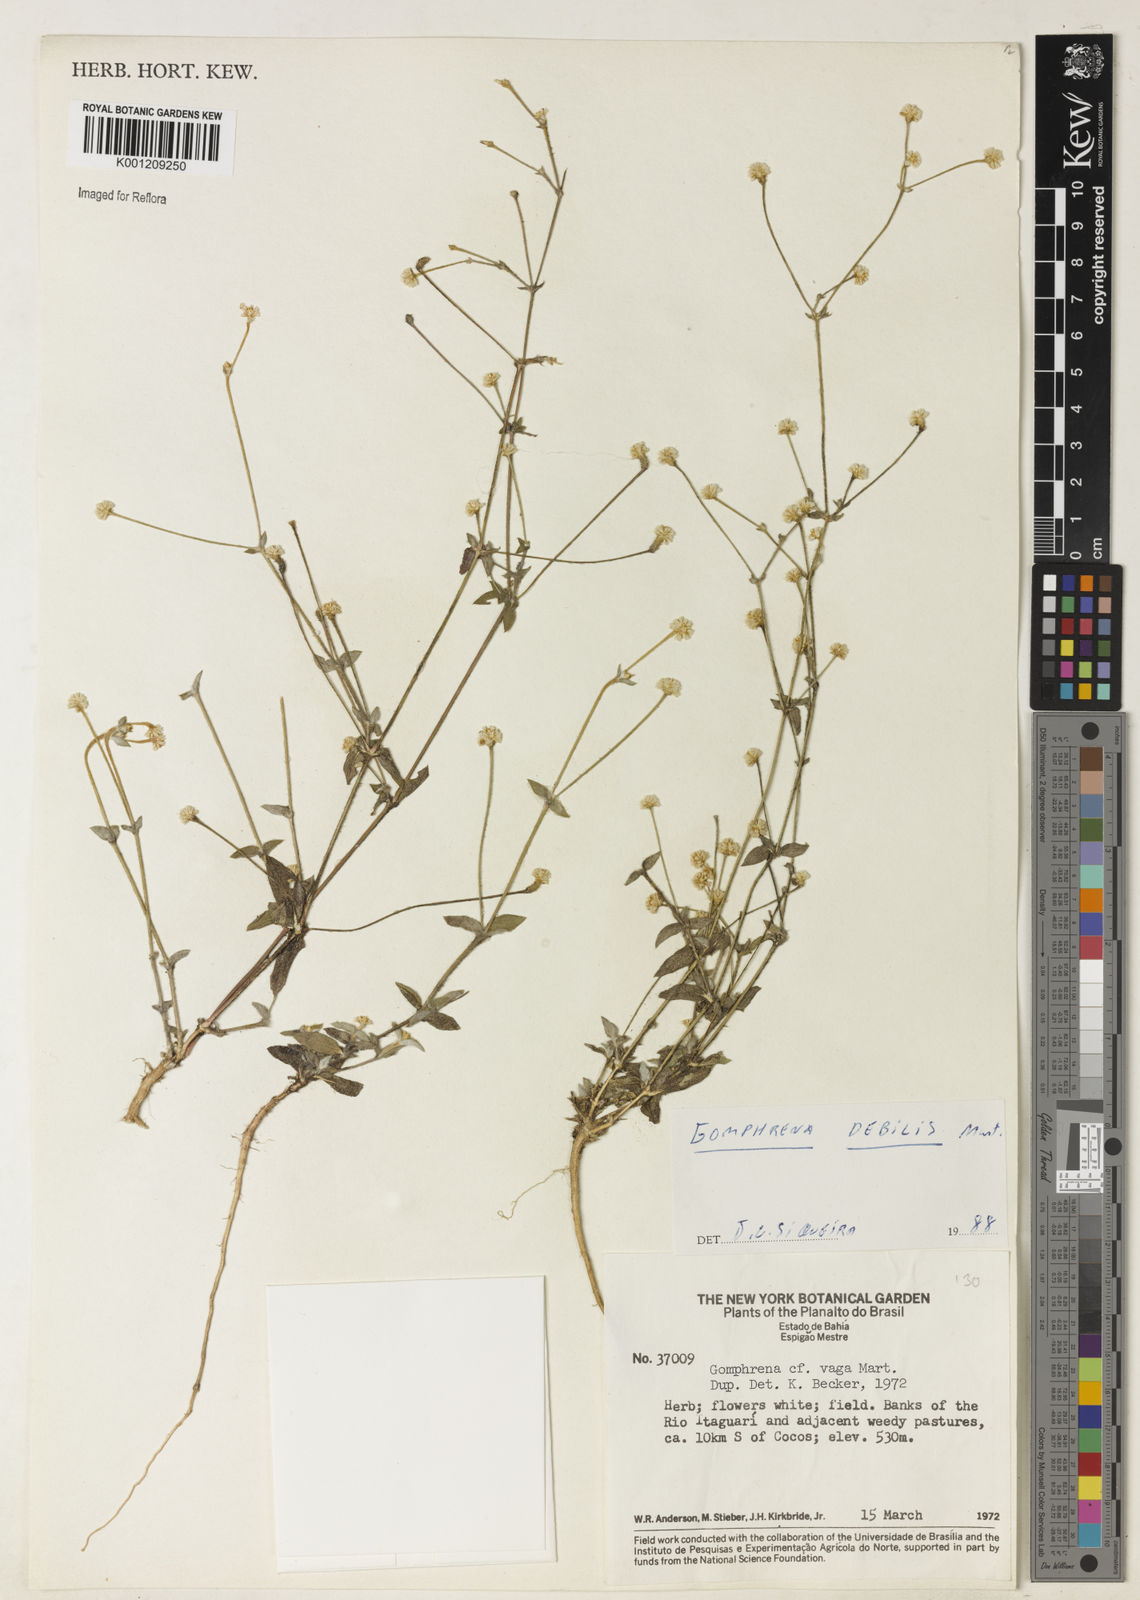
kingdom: Plantae
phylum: Tracheophyta
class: Magnoliopsida
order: Caryophyllales
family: Amaranthaceae
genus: Gomphrena
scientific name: Gomphrena vaga
